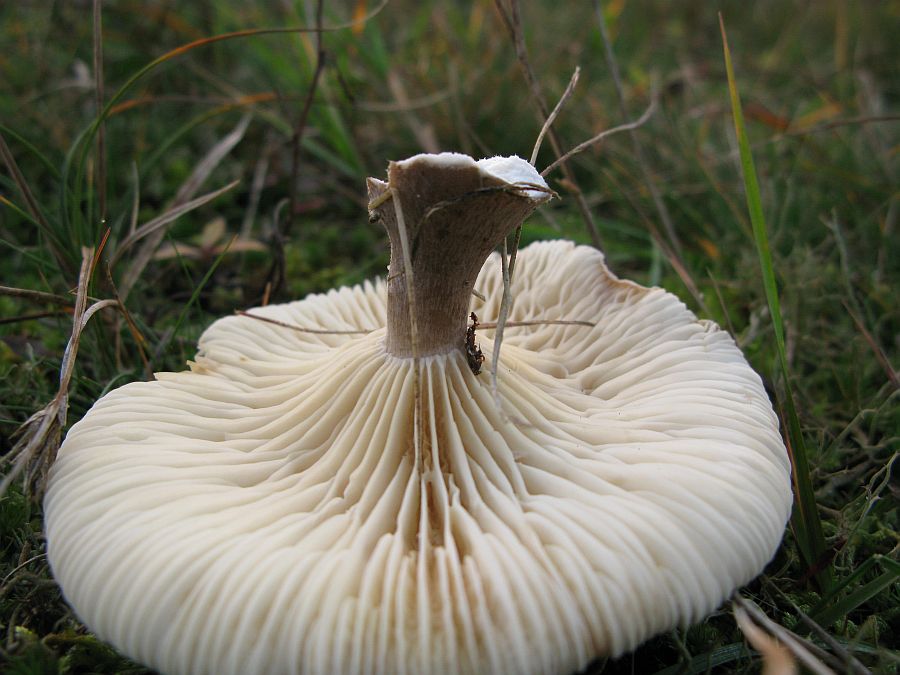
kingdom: Fungi
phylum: Basidiomycota
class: Agaricomycetes
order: Agaricales
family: Hygrophoraceae
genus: Ampulloclitocybe
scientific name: Ampulloclitocybe clavipes
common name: køllefod
